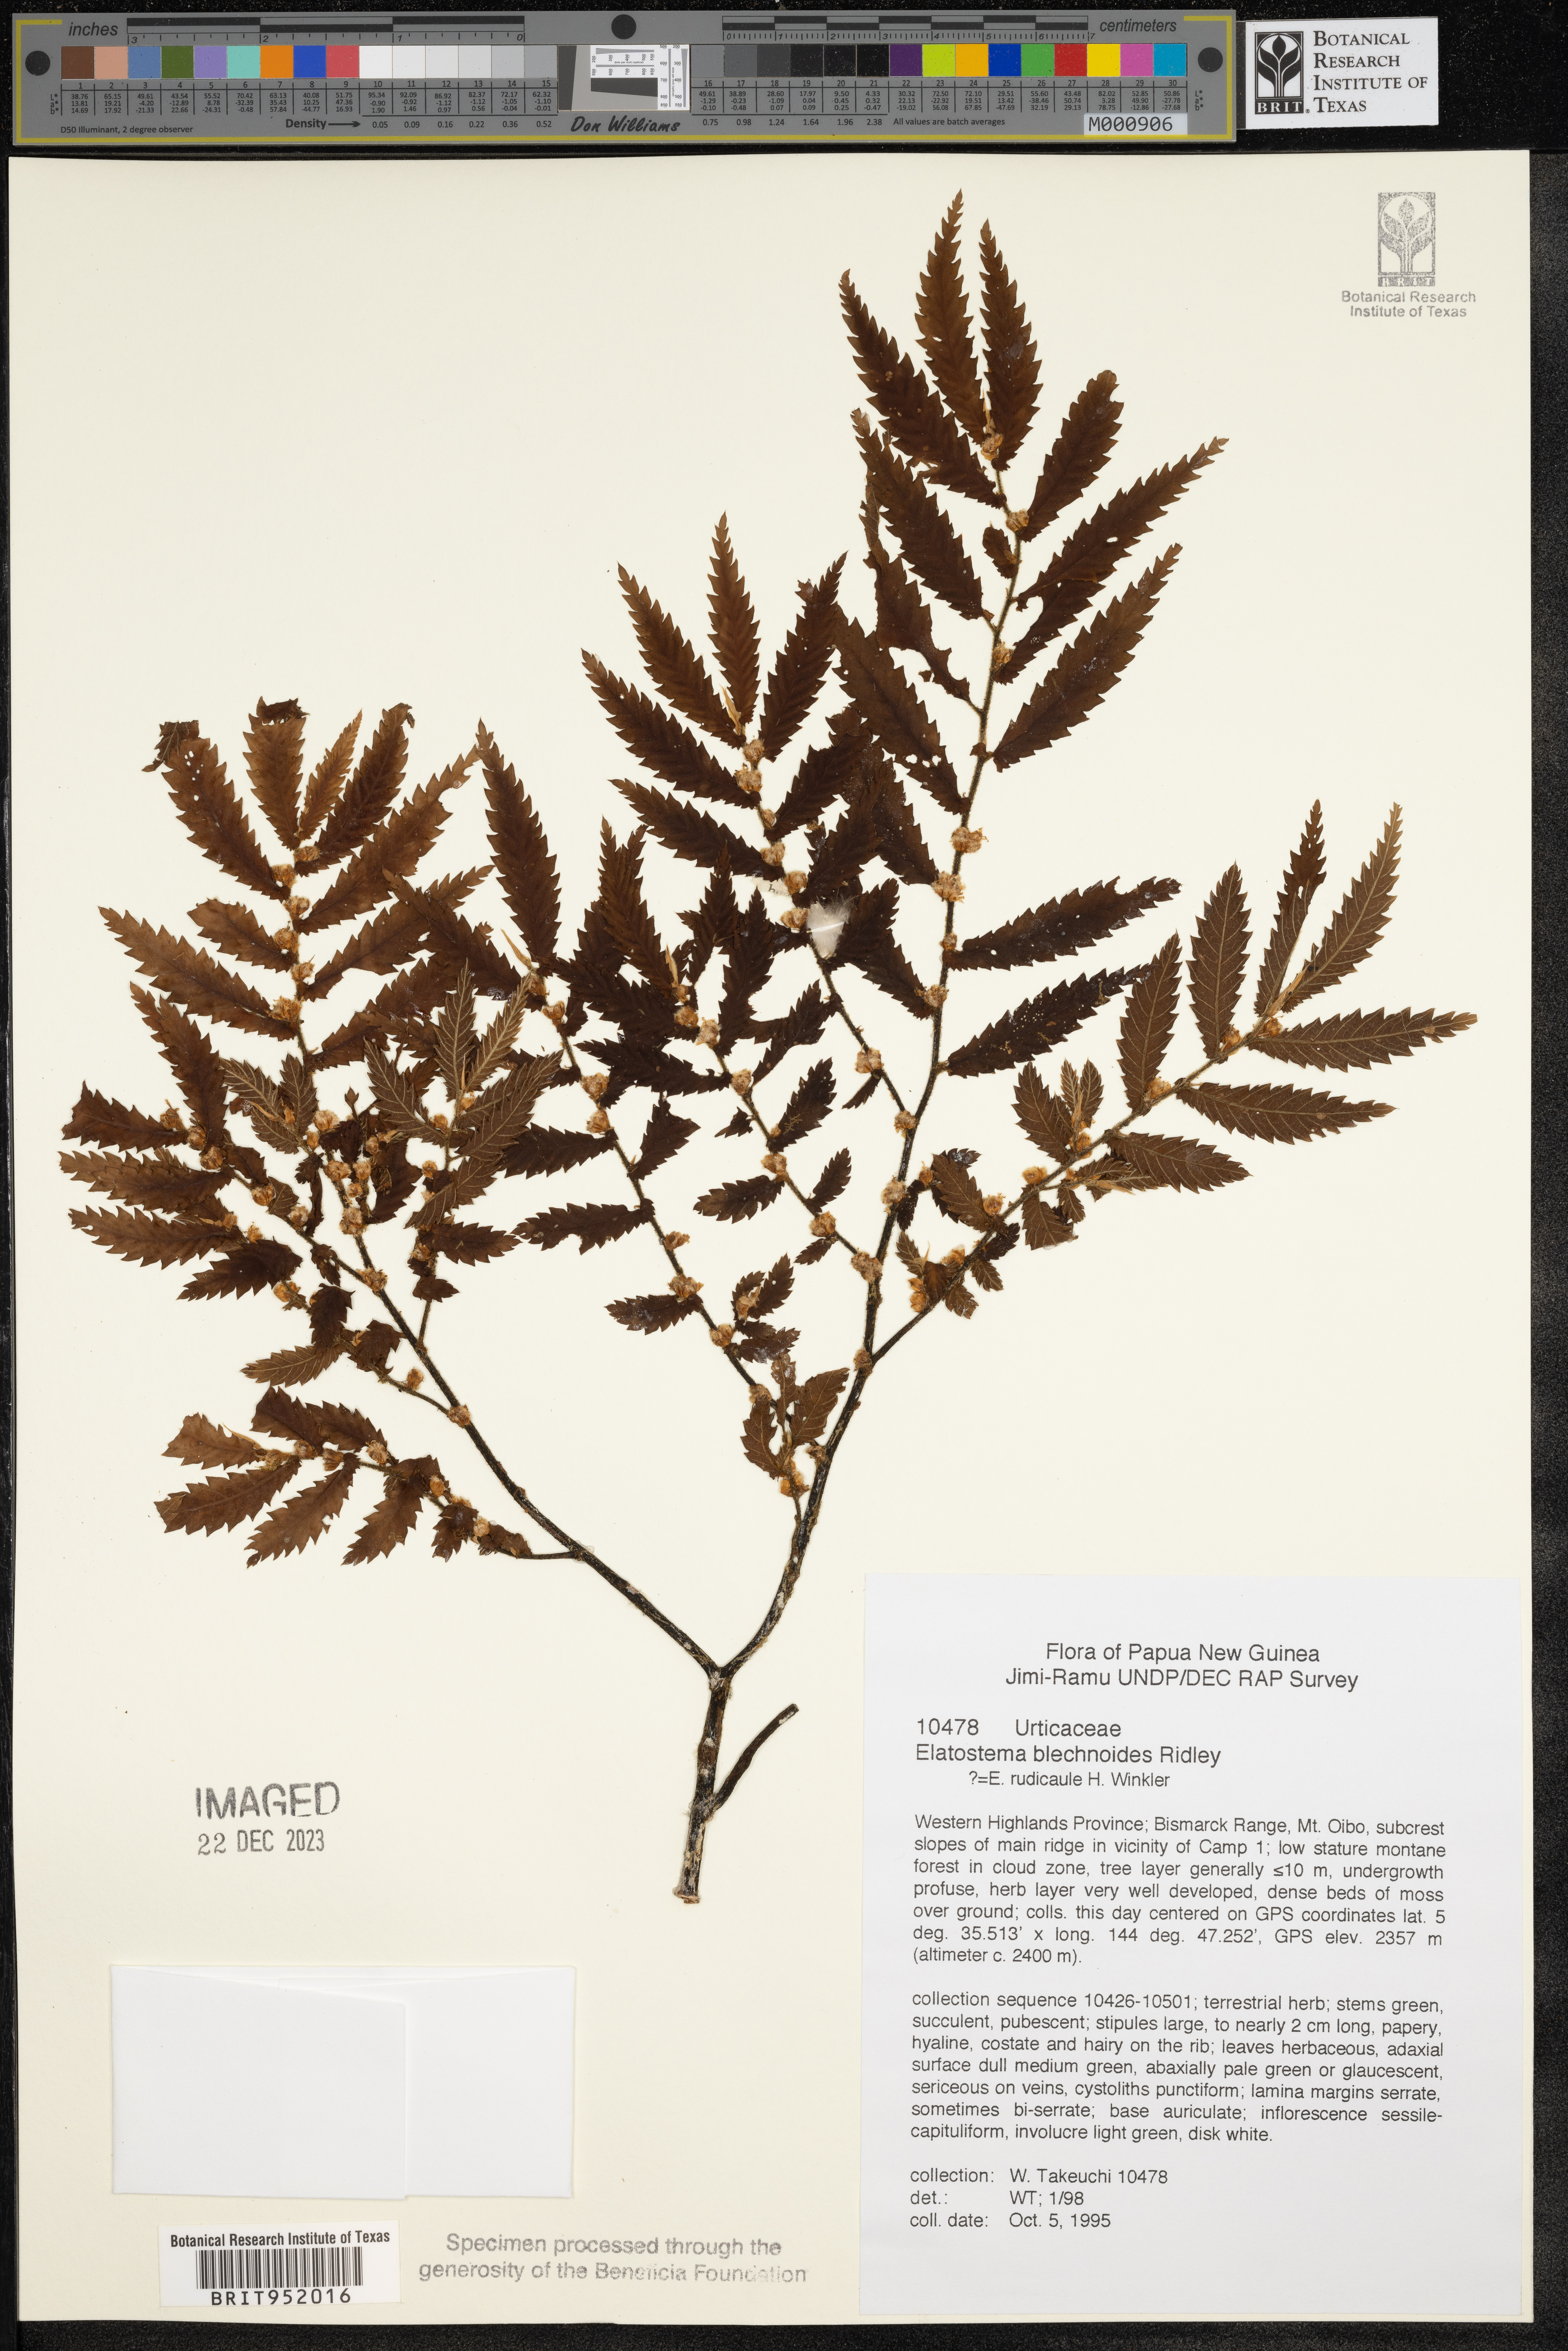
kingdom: Plantae
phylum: Tracheophyta
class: Magnoliopsida
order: Rosales
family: Urticaceae
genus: Elatostema
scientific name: Elatostema
